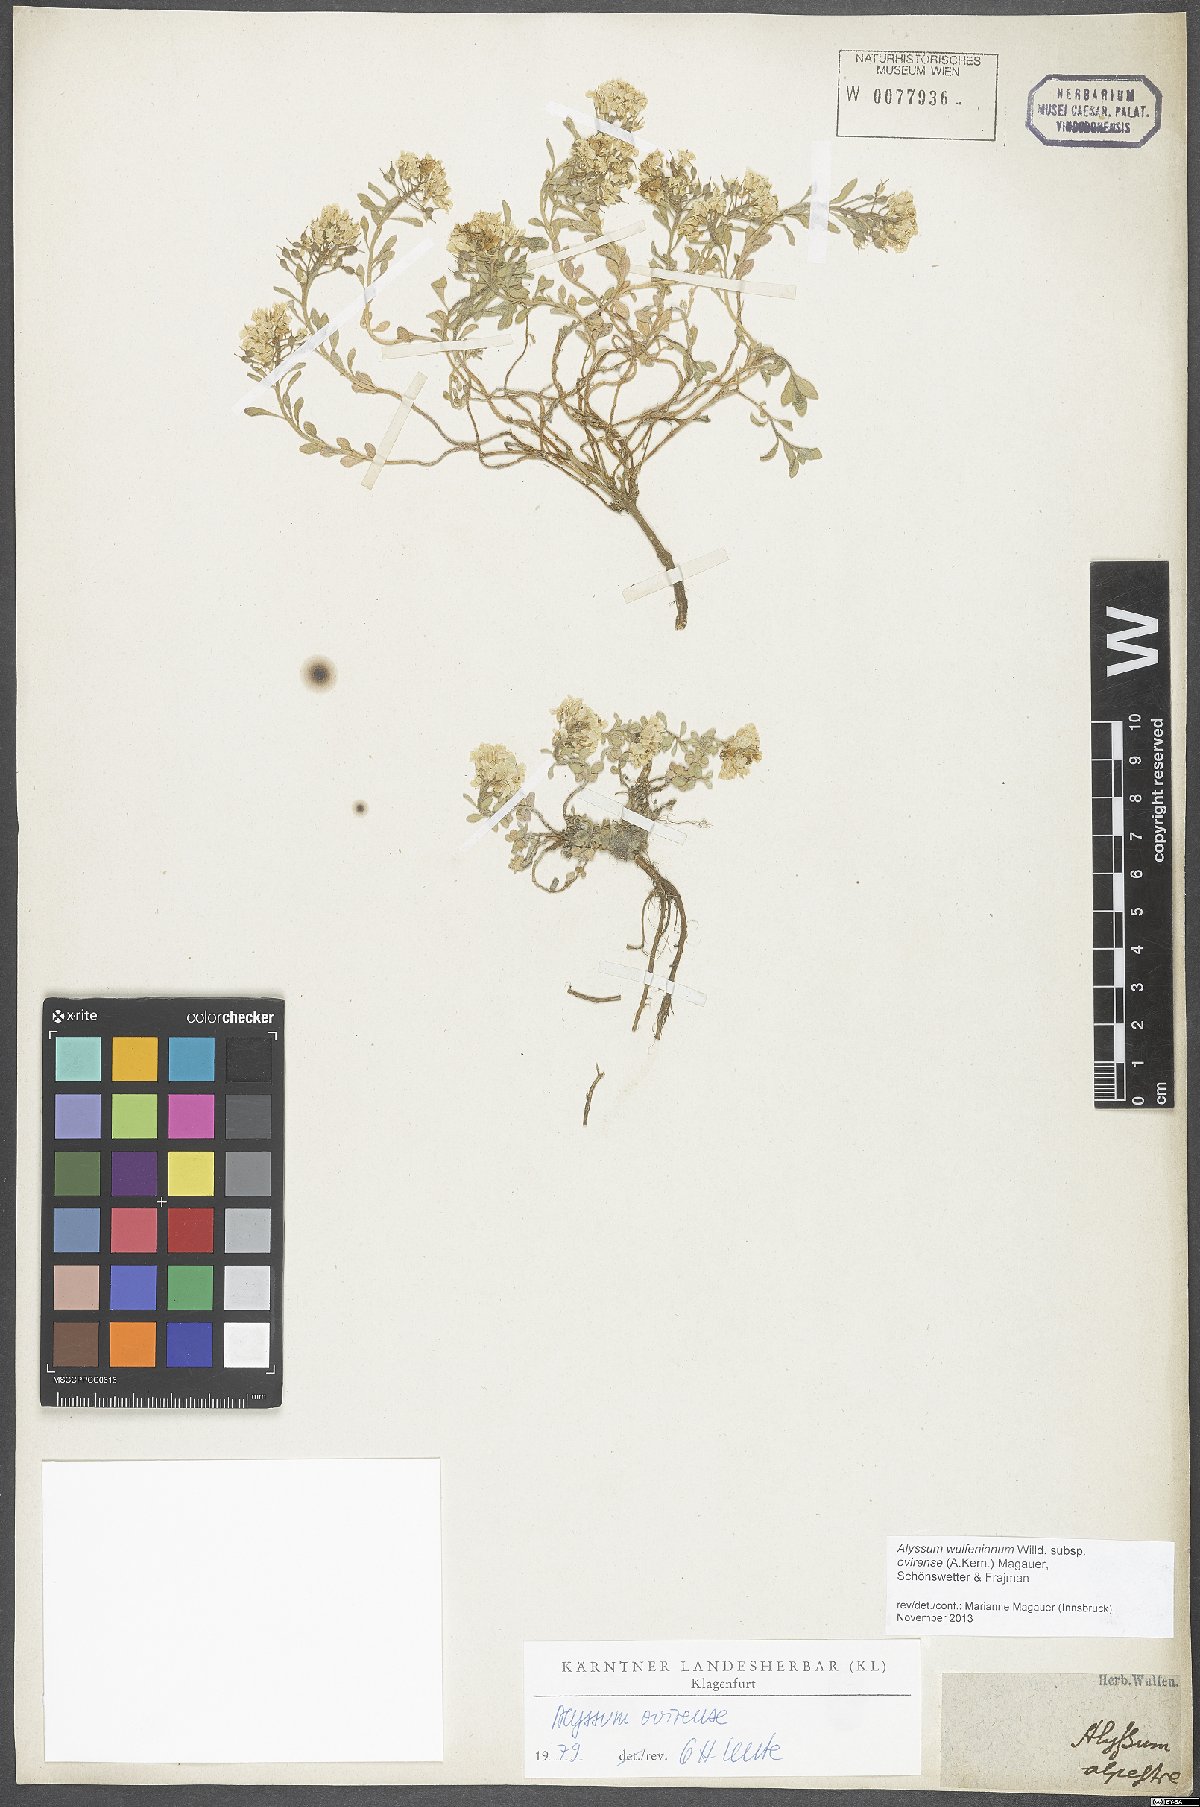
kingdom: Plantae
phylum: Tracheophyta
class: Magnoliopsida
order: Brassicales
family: Brassicaceae
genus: Alyssum
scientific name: Alyssum wulfenianum
